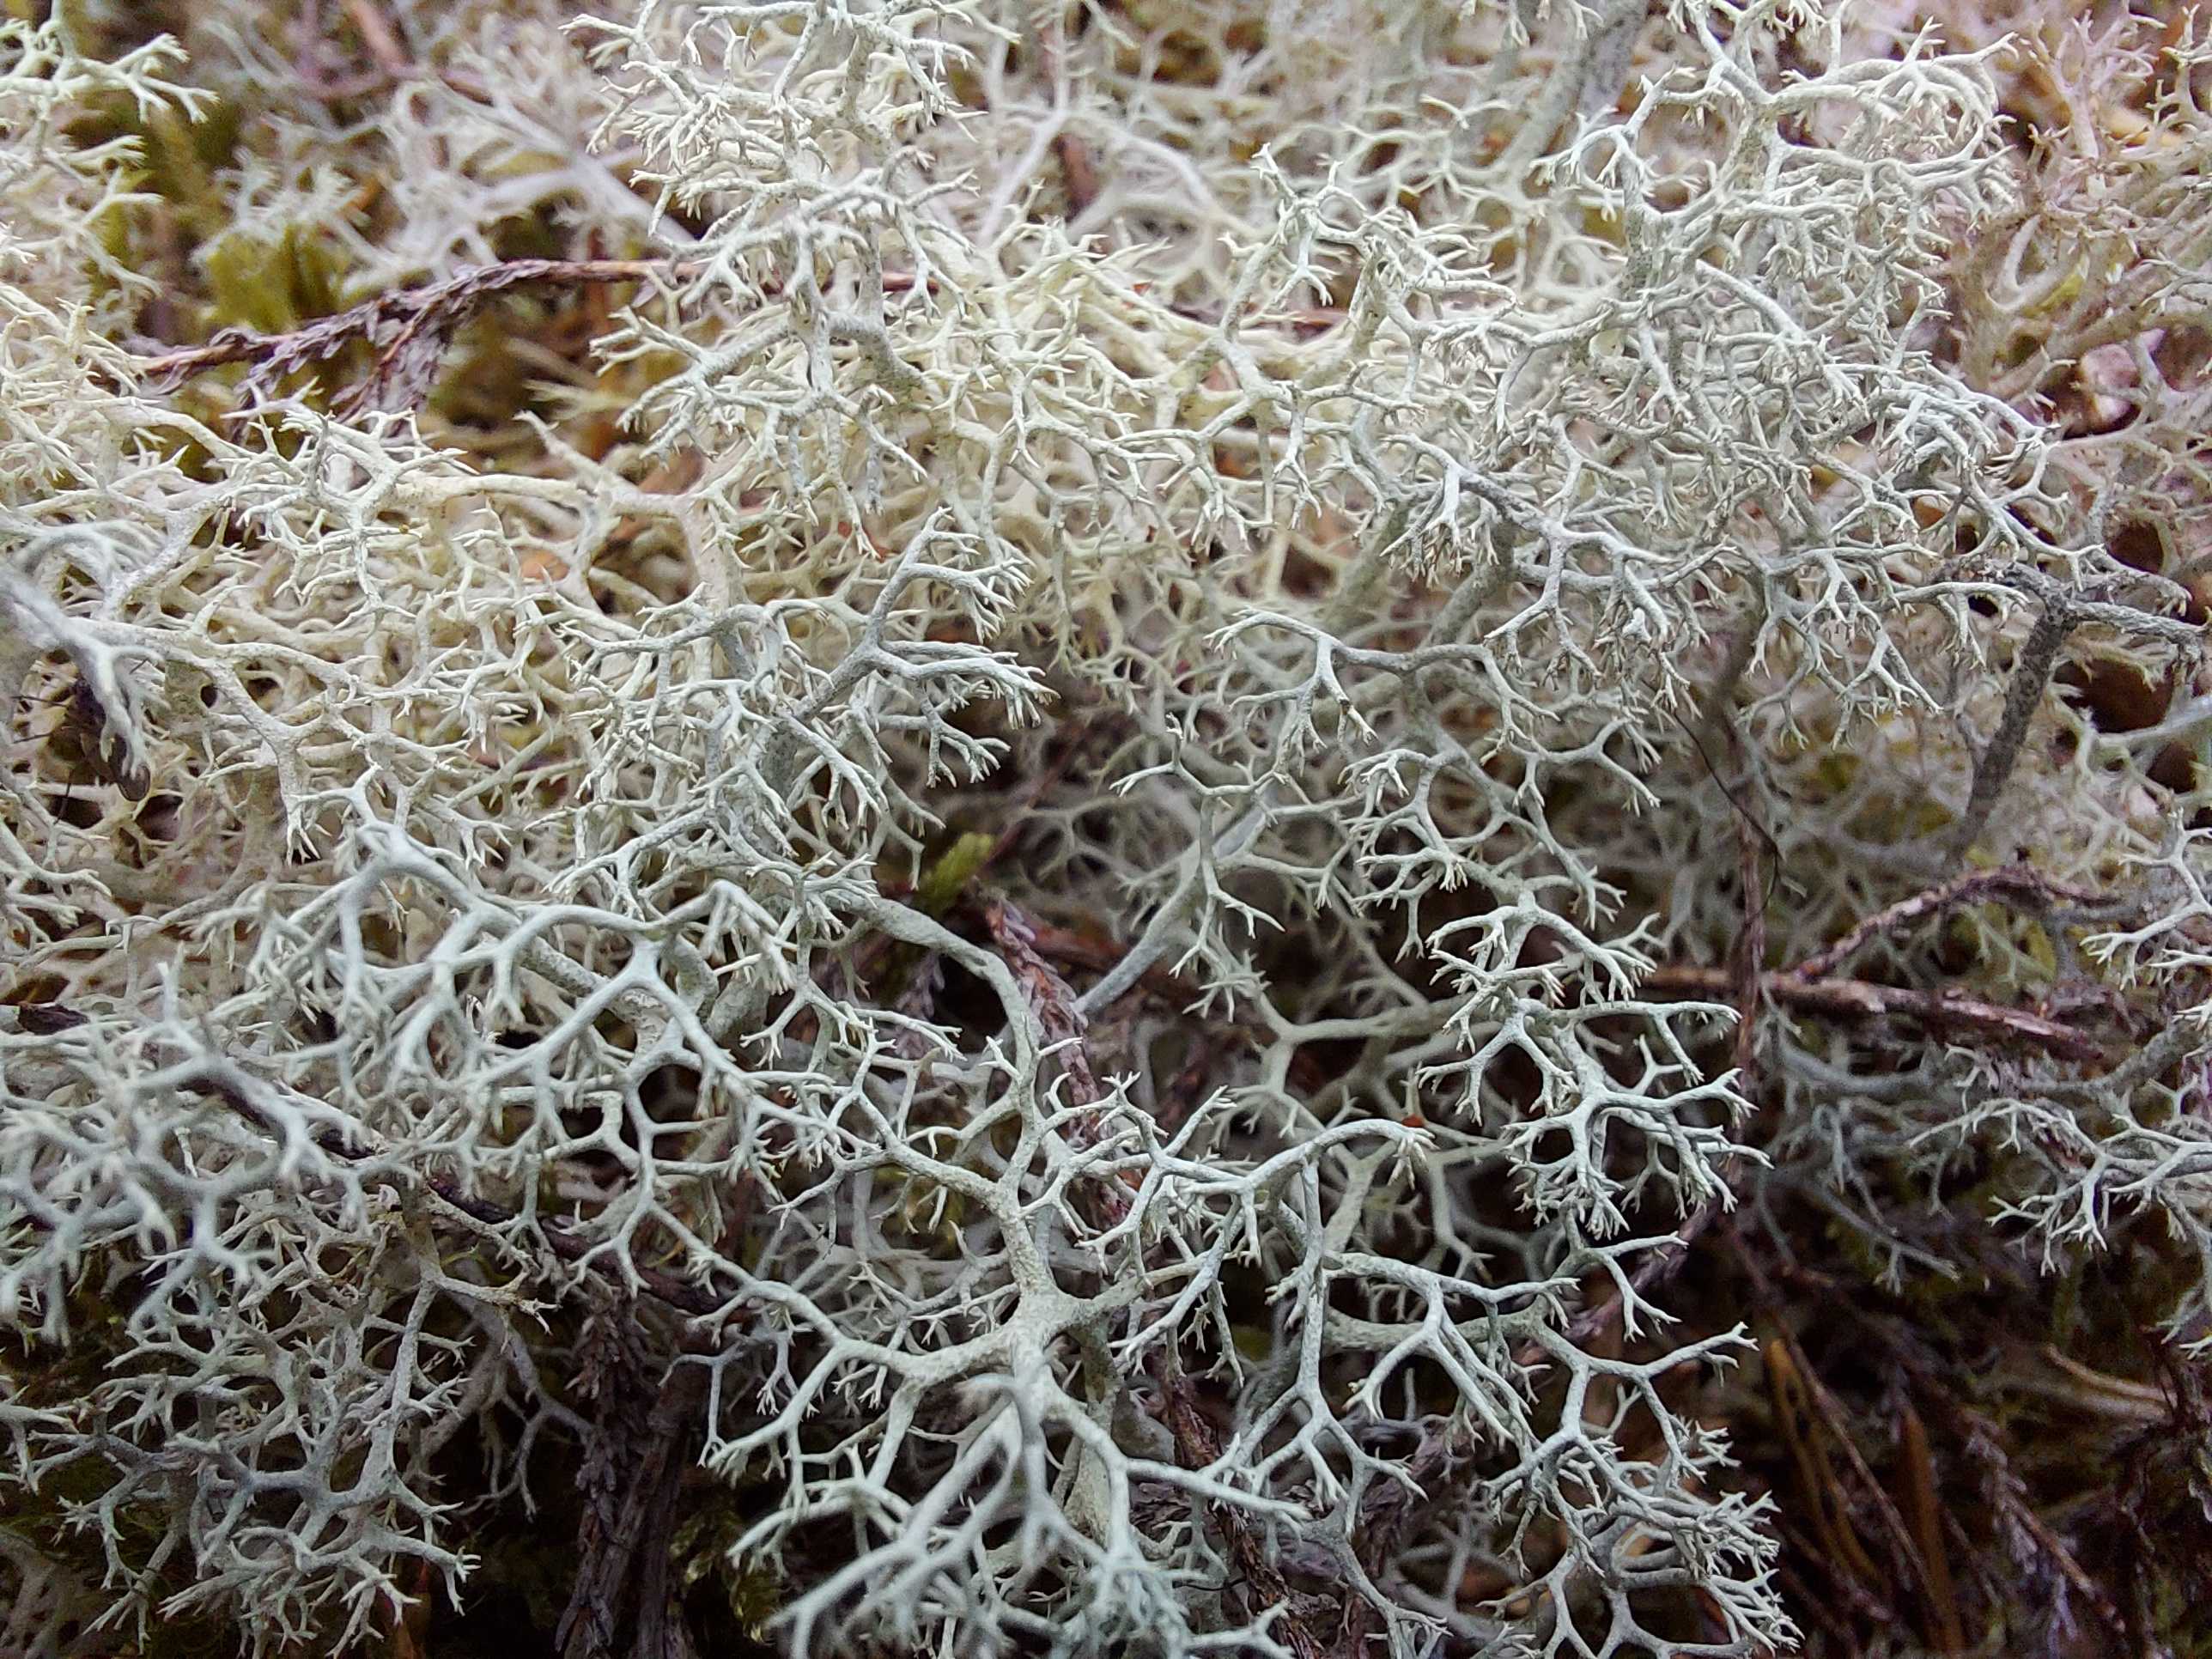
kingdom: Fungi
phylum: Ascomycota
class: Lecanoromycetes
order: Lecanorales
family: Cladoniaceae
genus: Cladonia
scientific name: Cladonia portentosa
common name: hede-rensdyrlav
